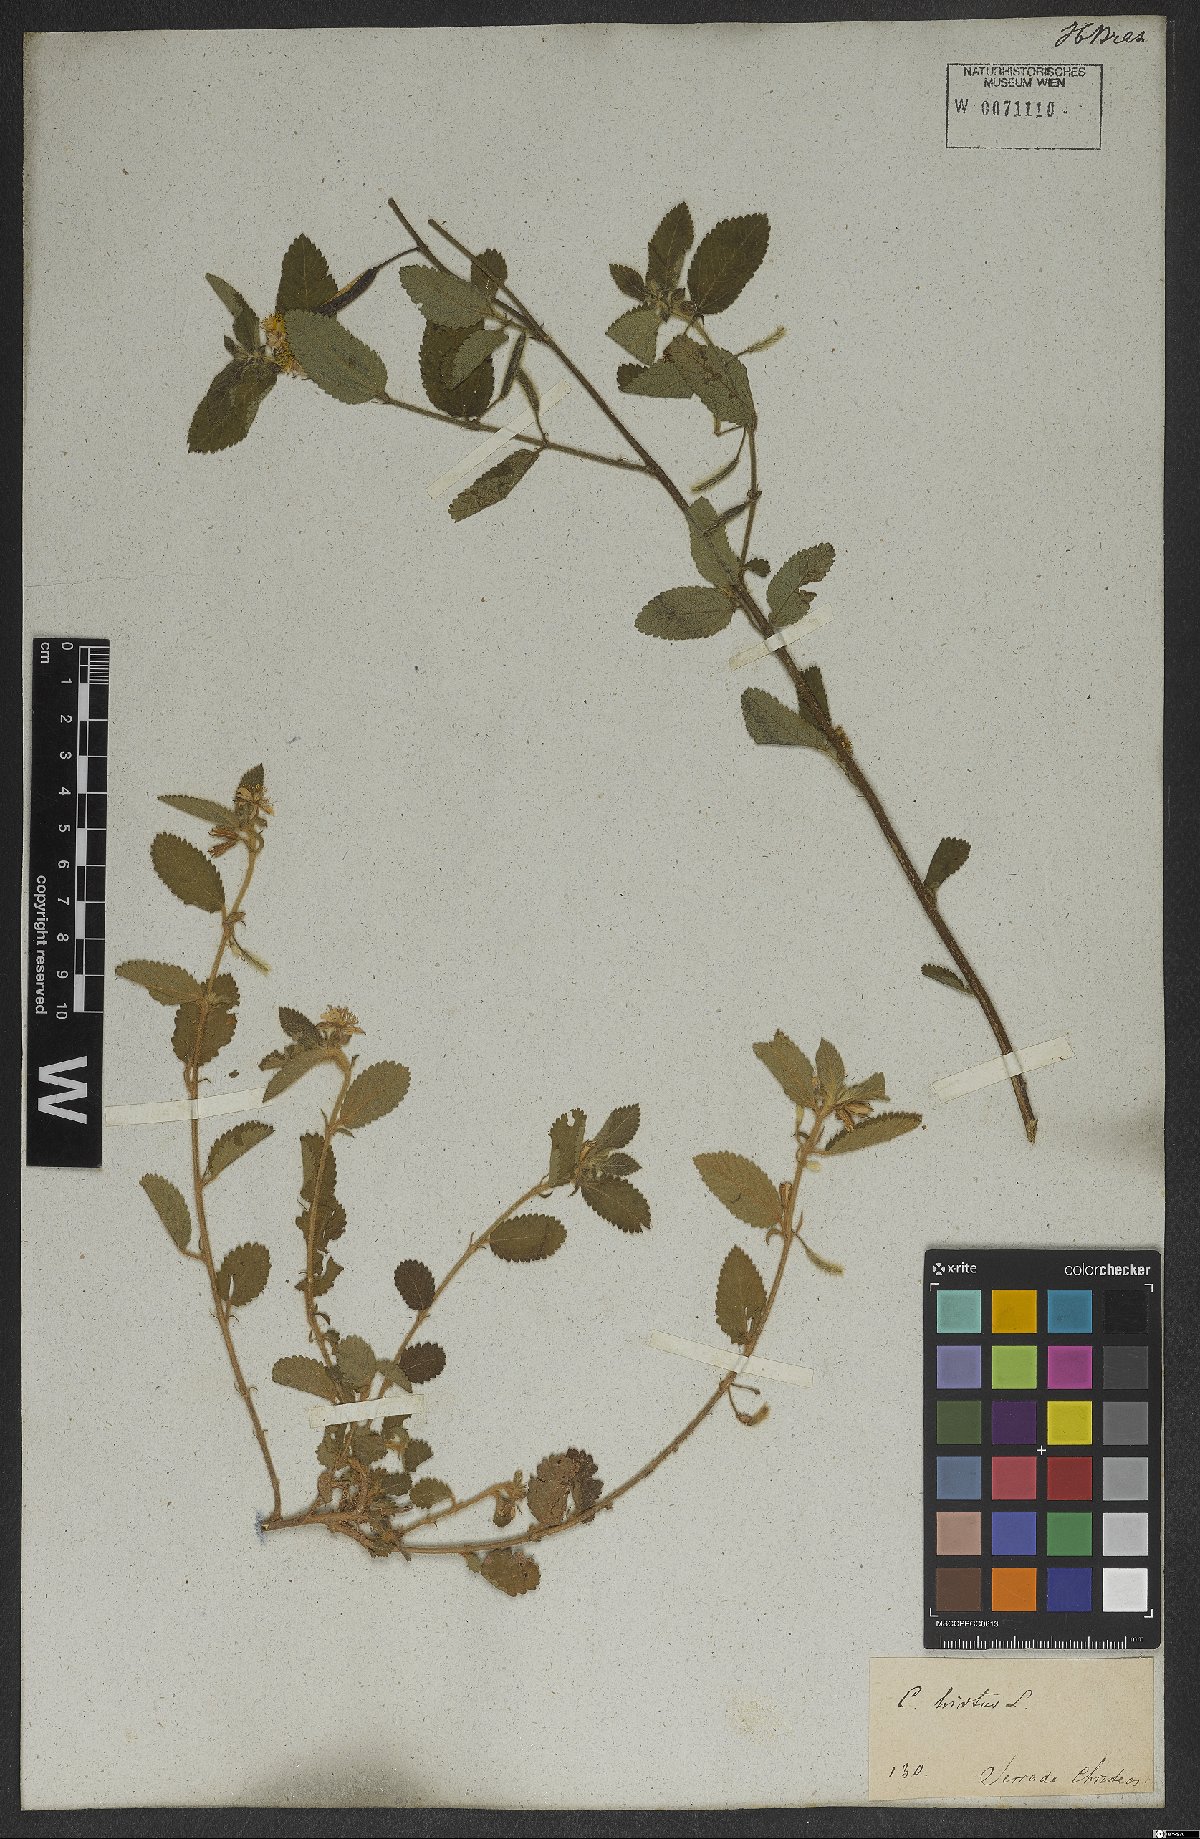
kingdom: Plantae
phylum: Tracheophyta
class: Magnoliopsida
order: Malvales
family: Malvaceae
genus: Corchorus
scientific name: Corchorus hirtus
